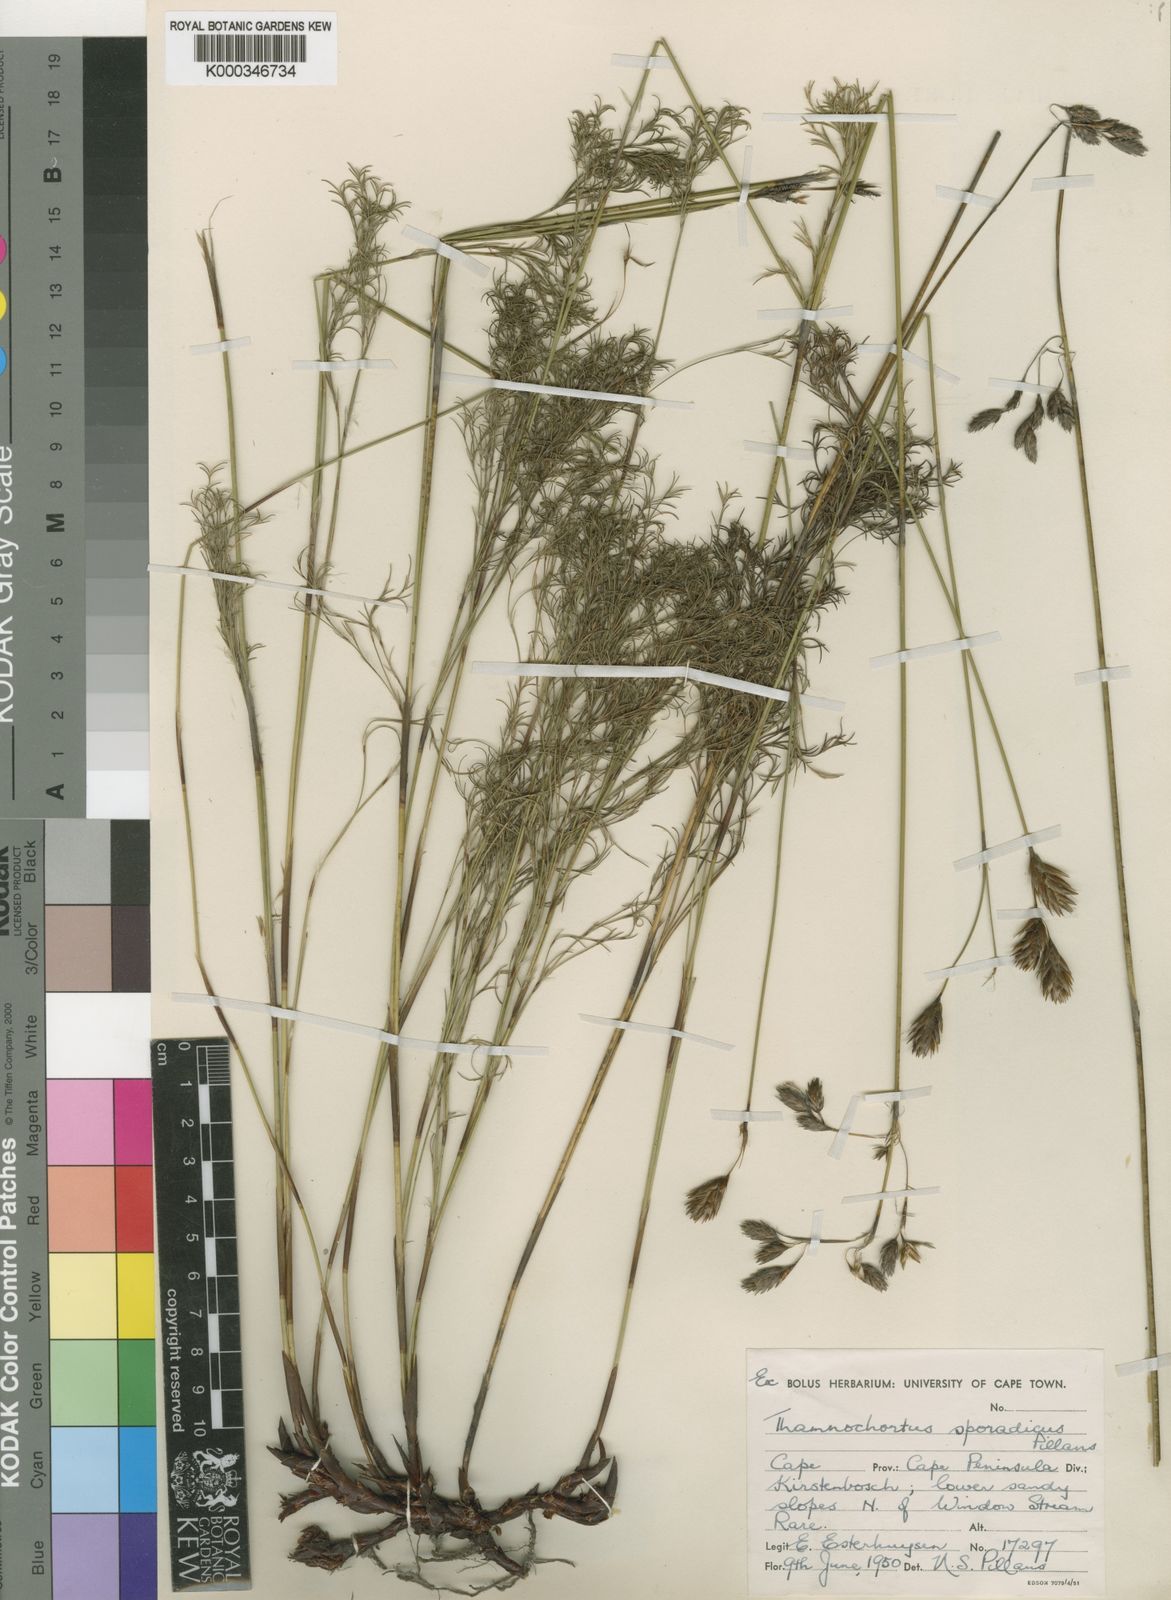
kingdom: Plantae
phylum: Tracheophyta
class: Liliopsida
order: Poales
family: Restionaceae
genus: Thamnochortus
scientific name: Thamnochortus sporadicus
